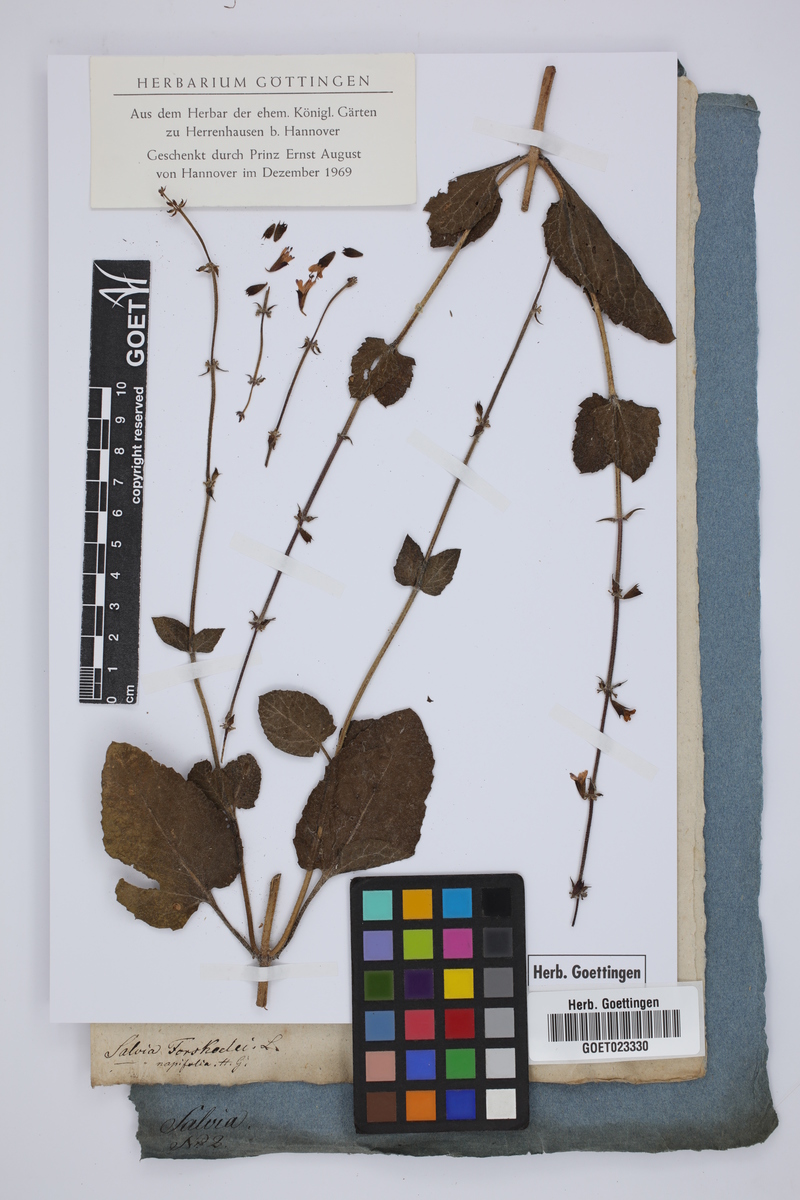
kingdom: Plantae
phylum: Tracheophyta
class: Magnoliopsida
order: Lamiales
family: Lamiaceae
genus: Salvia
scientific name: Salvia forsskaolei
